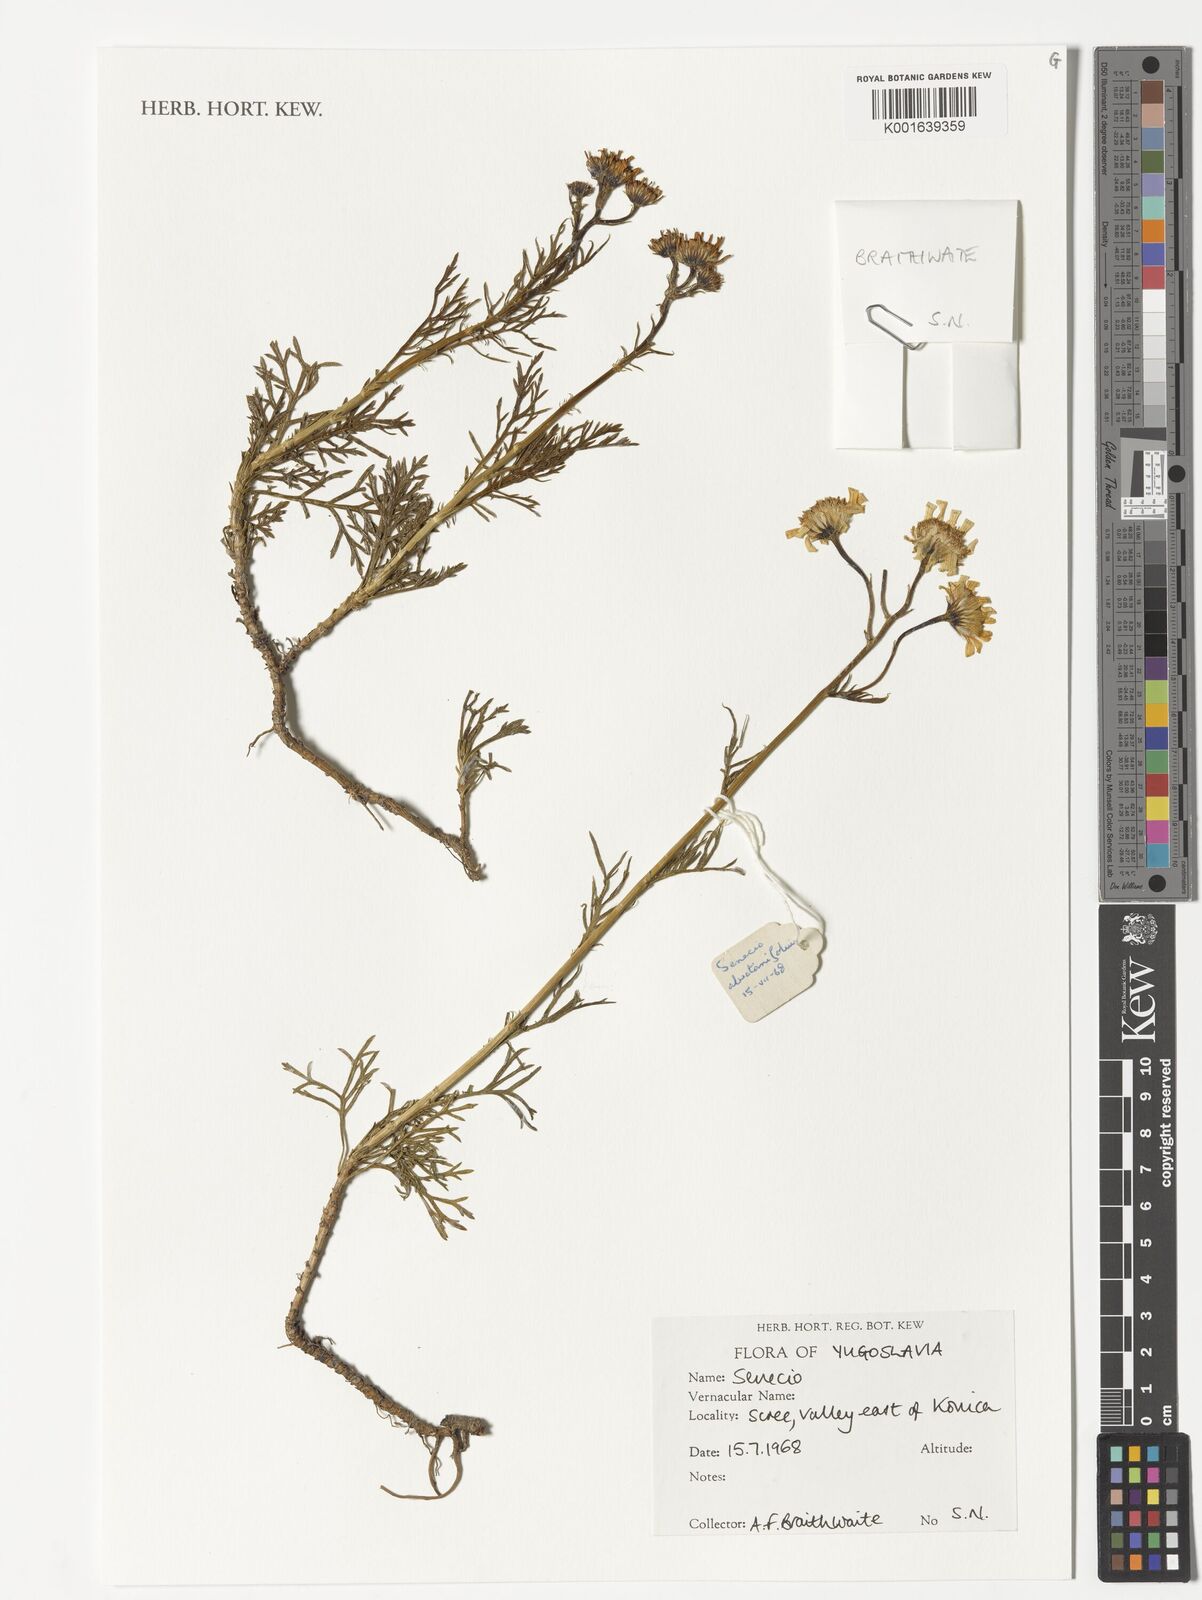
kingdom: Plantae
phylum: Tracheophyta
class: Magnoliopsida
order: Asterales
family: Asteraceae
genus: Senecio
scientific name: Senecio
